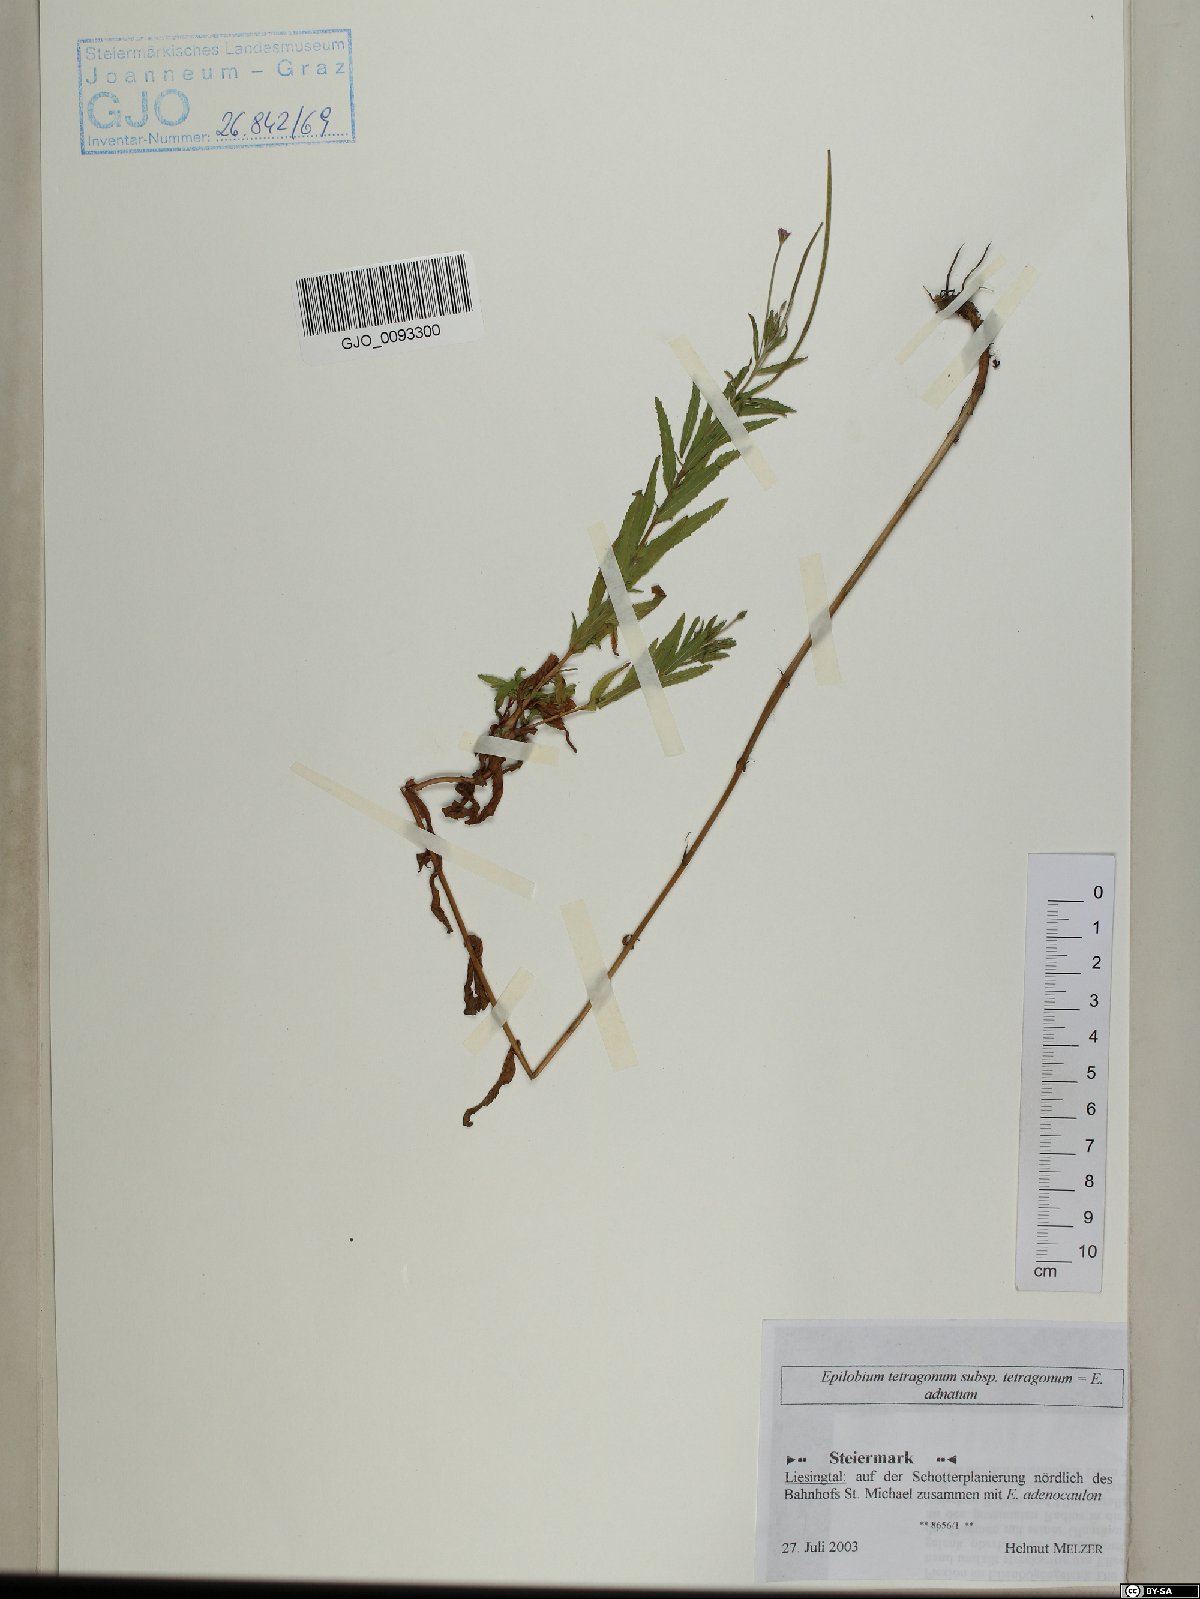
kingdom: Plantae
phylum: Tracheophyta
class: Magnoliopsida
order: Myrtales
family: Onagraceae
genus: Epilobium
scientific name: Epilobium tetragonum
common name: Square-stemmed willowherb
